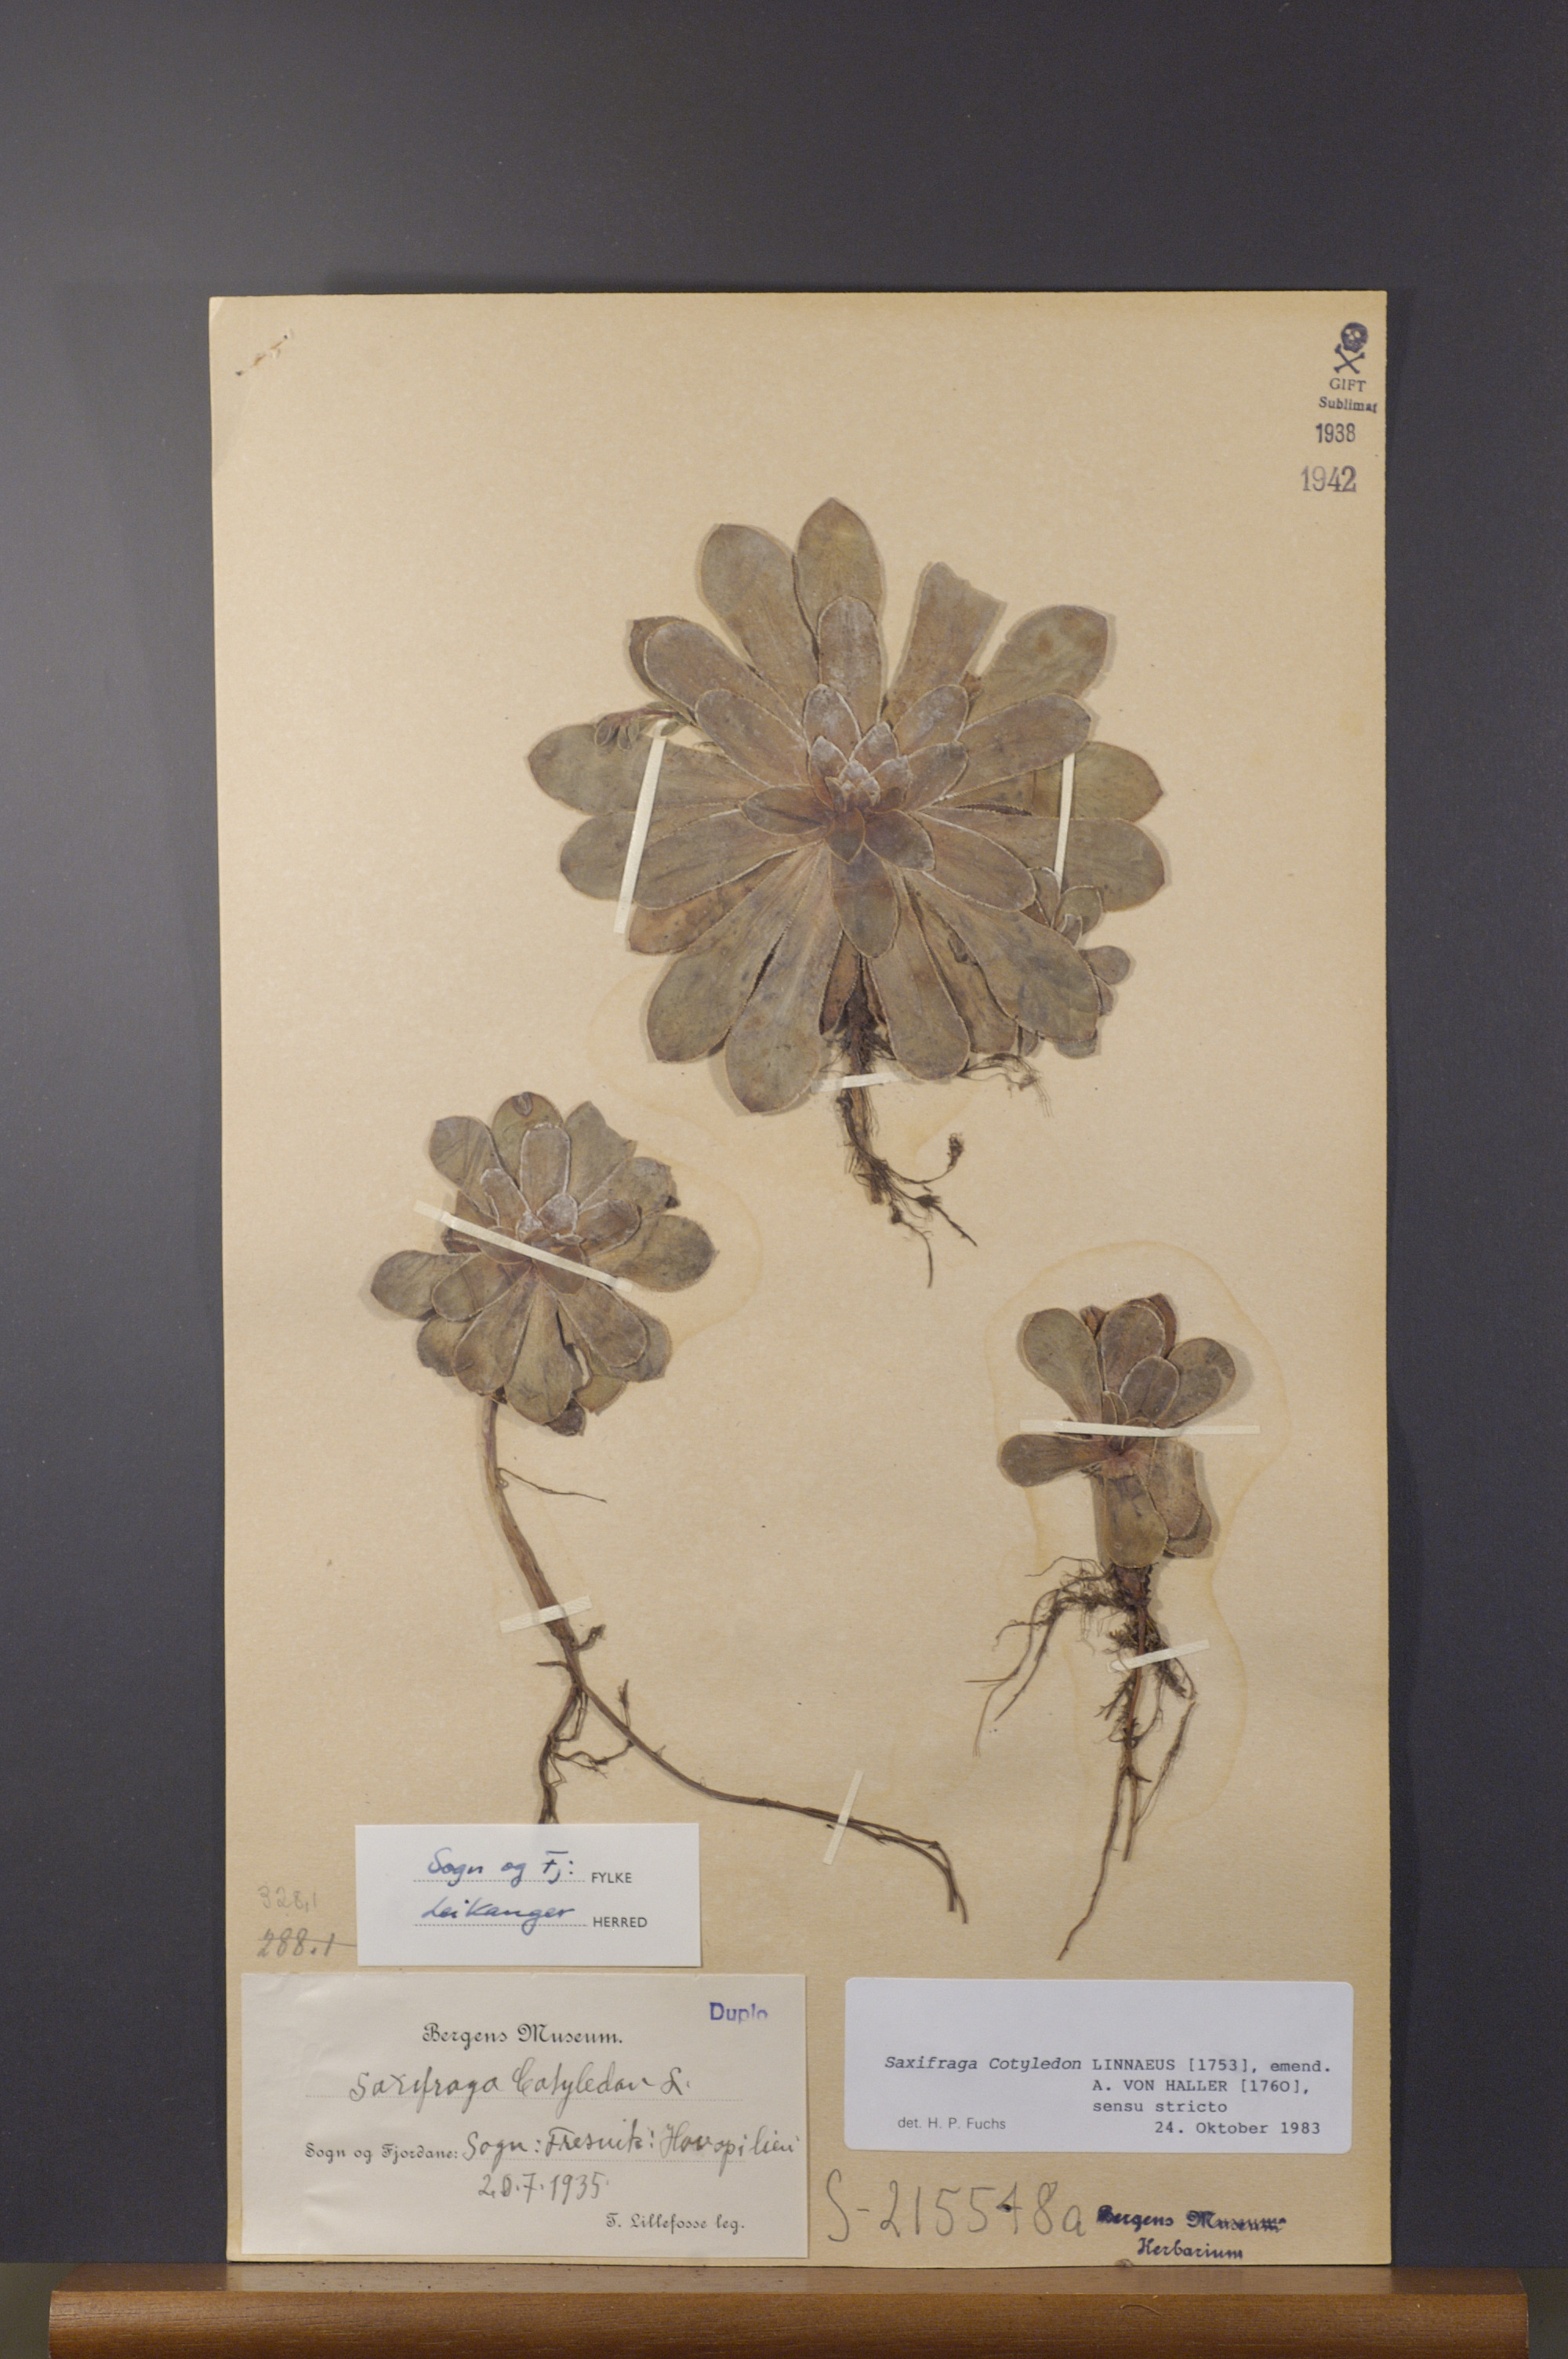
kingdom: Plantae
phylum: Tracheophyta
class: Magnoliopsida
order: Saxifragales
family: Saxifragaceae
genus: Saxifraga
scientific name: Saxifraga cotyledon
